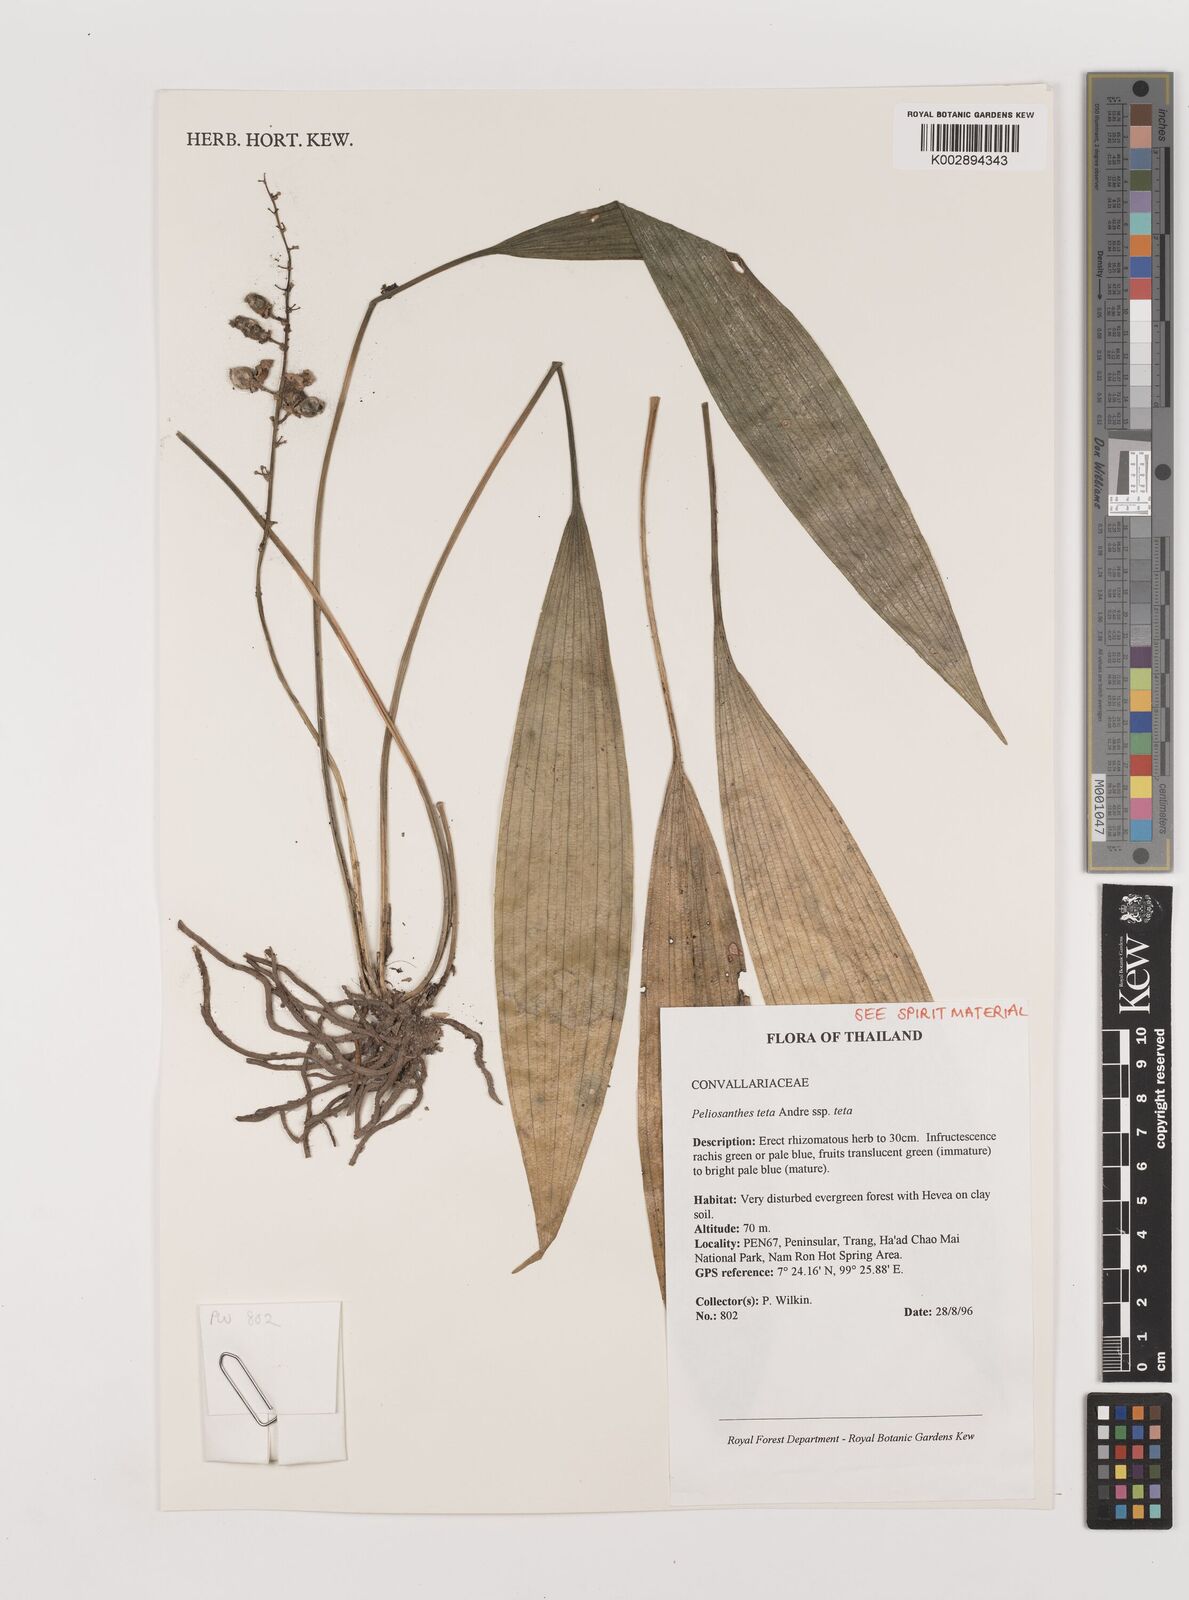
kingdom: Plantae
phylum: Tracheophyta
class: Liliopsida
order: Asparagales
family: Asparagaceae
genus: Peliosanthes
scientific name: Peliosanthes teta
